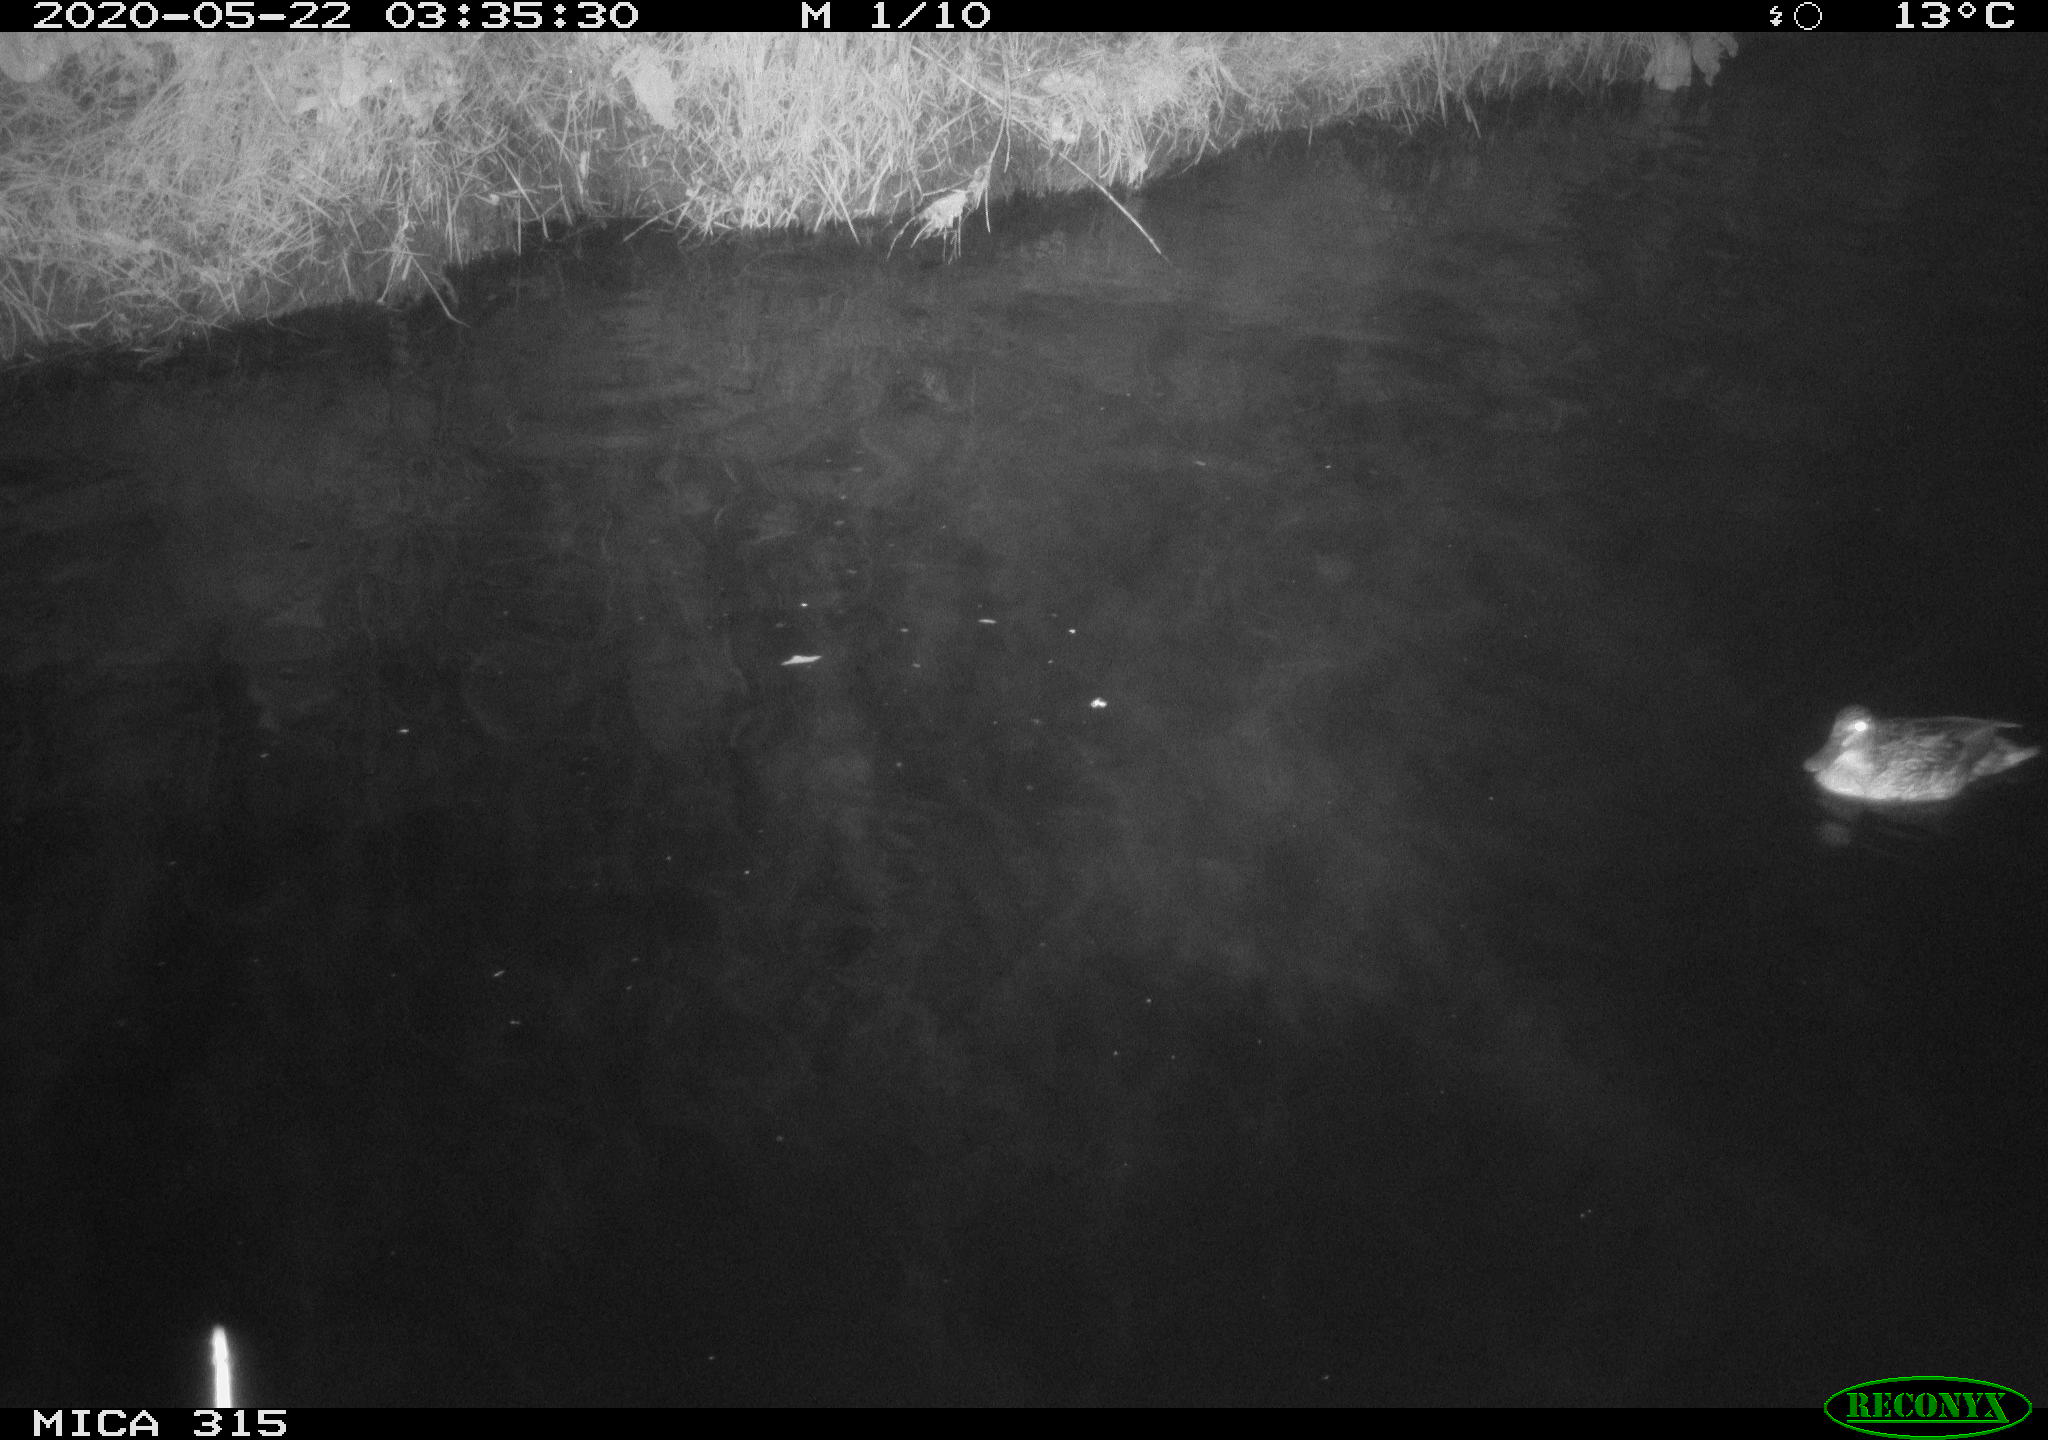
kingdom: Animalia
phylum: Chordata
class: Aves
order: Anseriformes
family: Anatidae
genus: Anas
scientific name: Anas platyrhynchos
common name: Mallard
